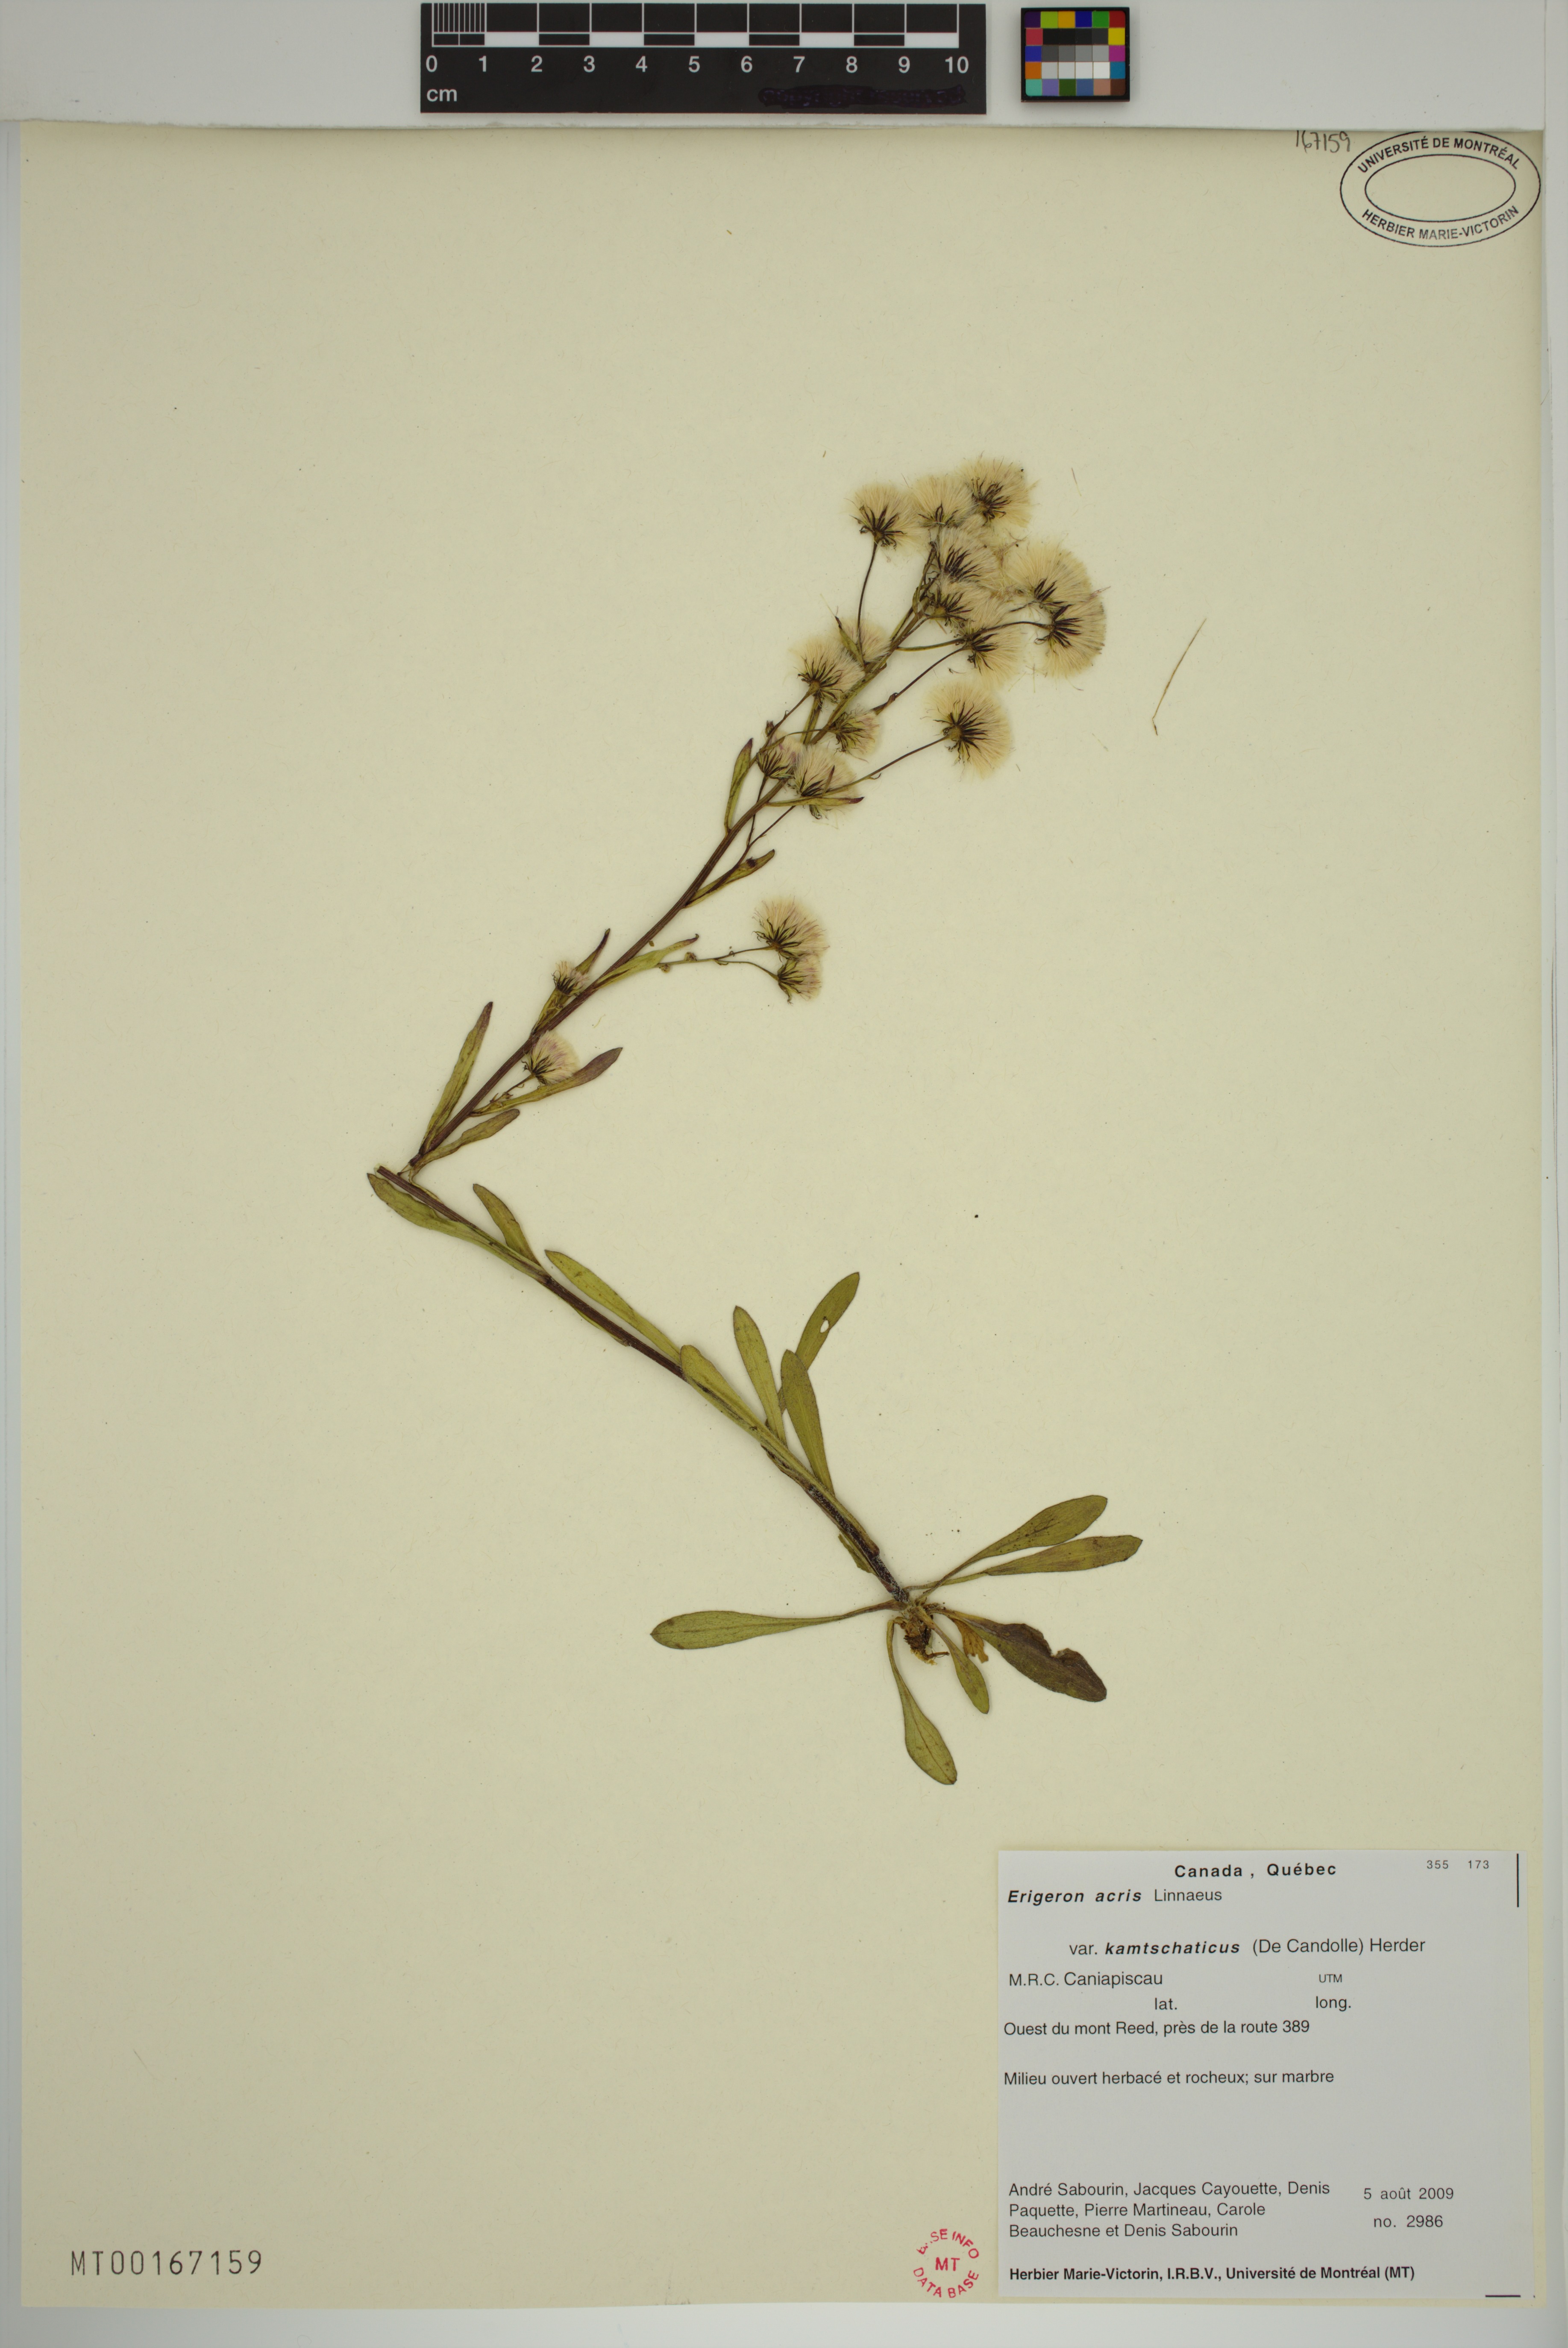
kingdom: Plantae
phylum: Tracheophyta
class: Magnoliopsida
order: Asterales
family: Asteraceae
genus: Erigeron
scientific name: Erigeron kamtschaticus
